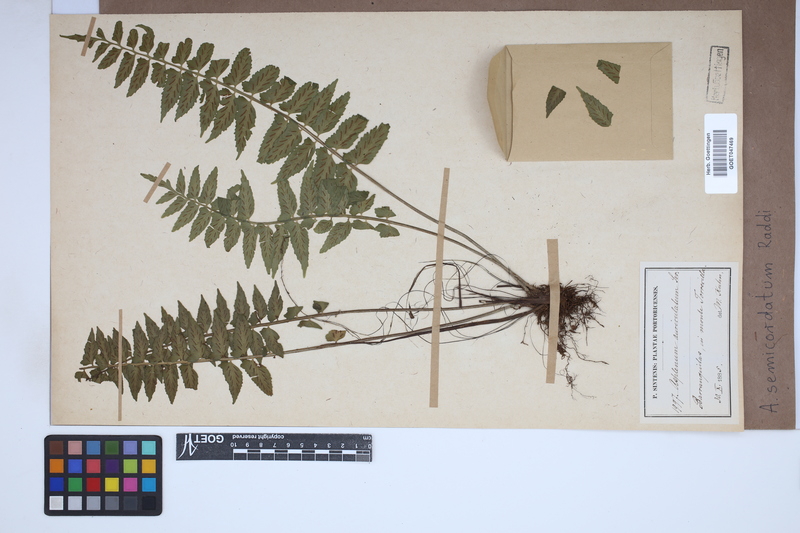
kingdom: Plantae
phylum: Tracheophyta
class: Polypodiopsida
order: Polypodiales
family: Aspleniaceae
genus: Asplenium
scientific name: Asplenium auriculatum
